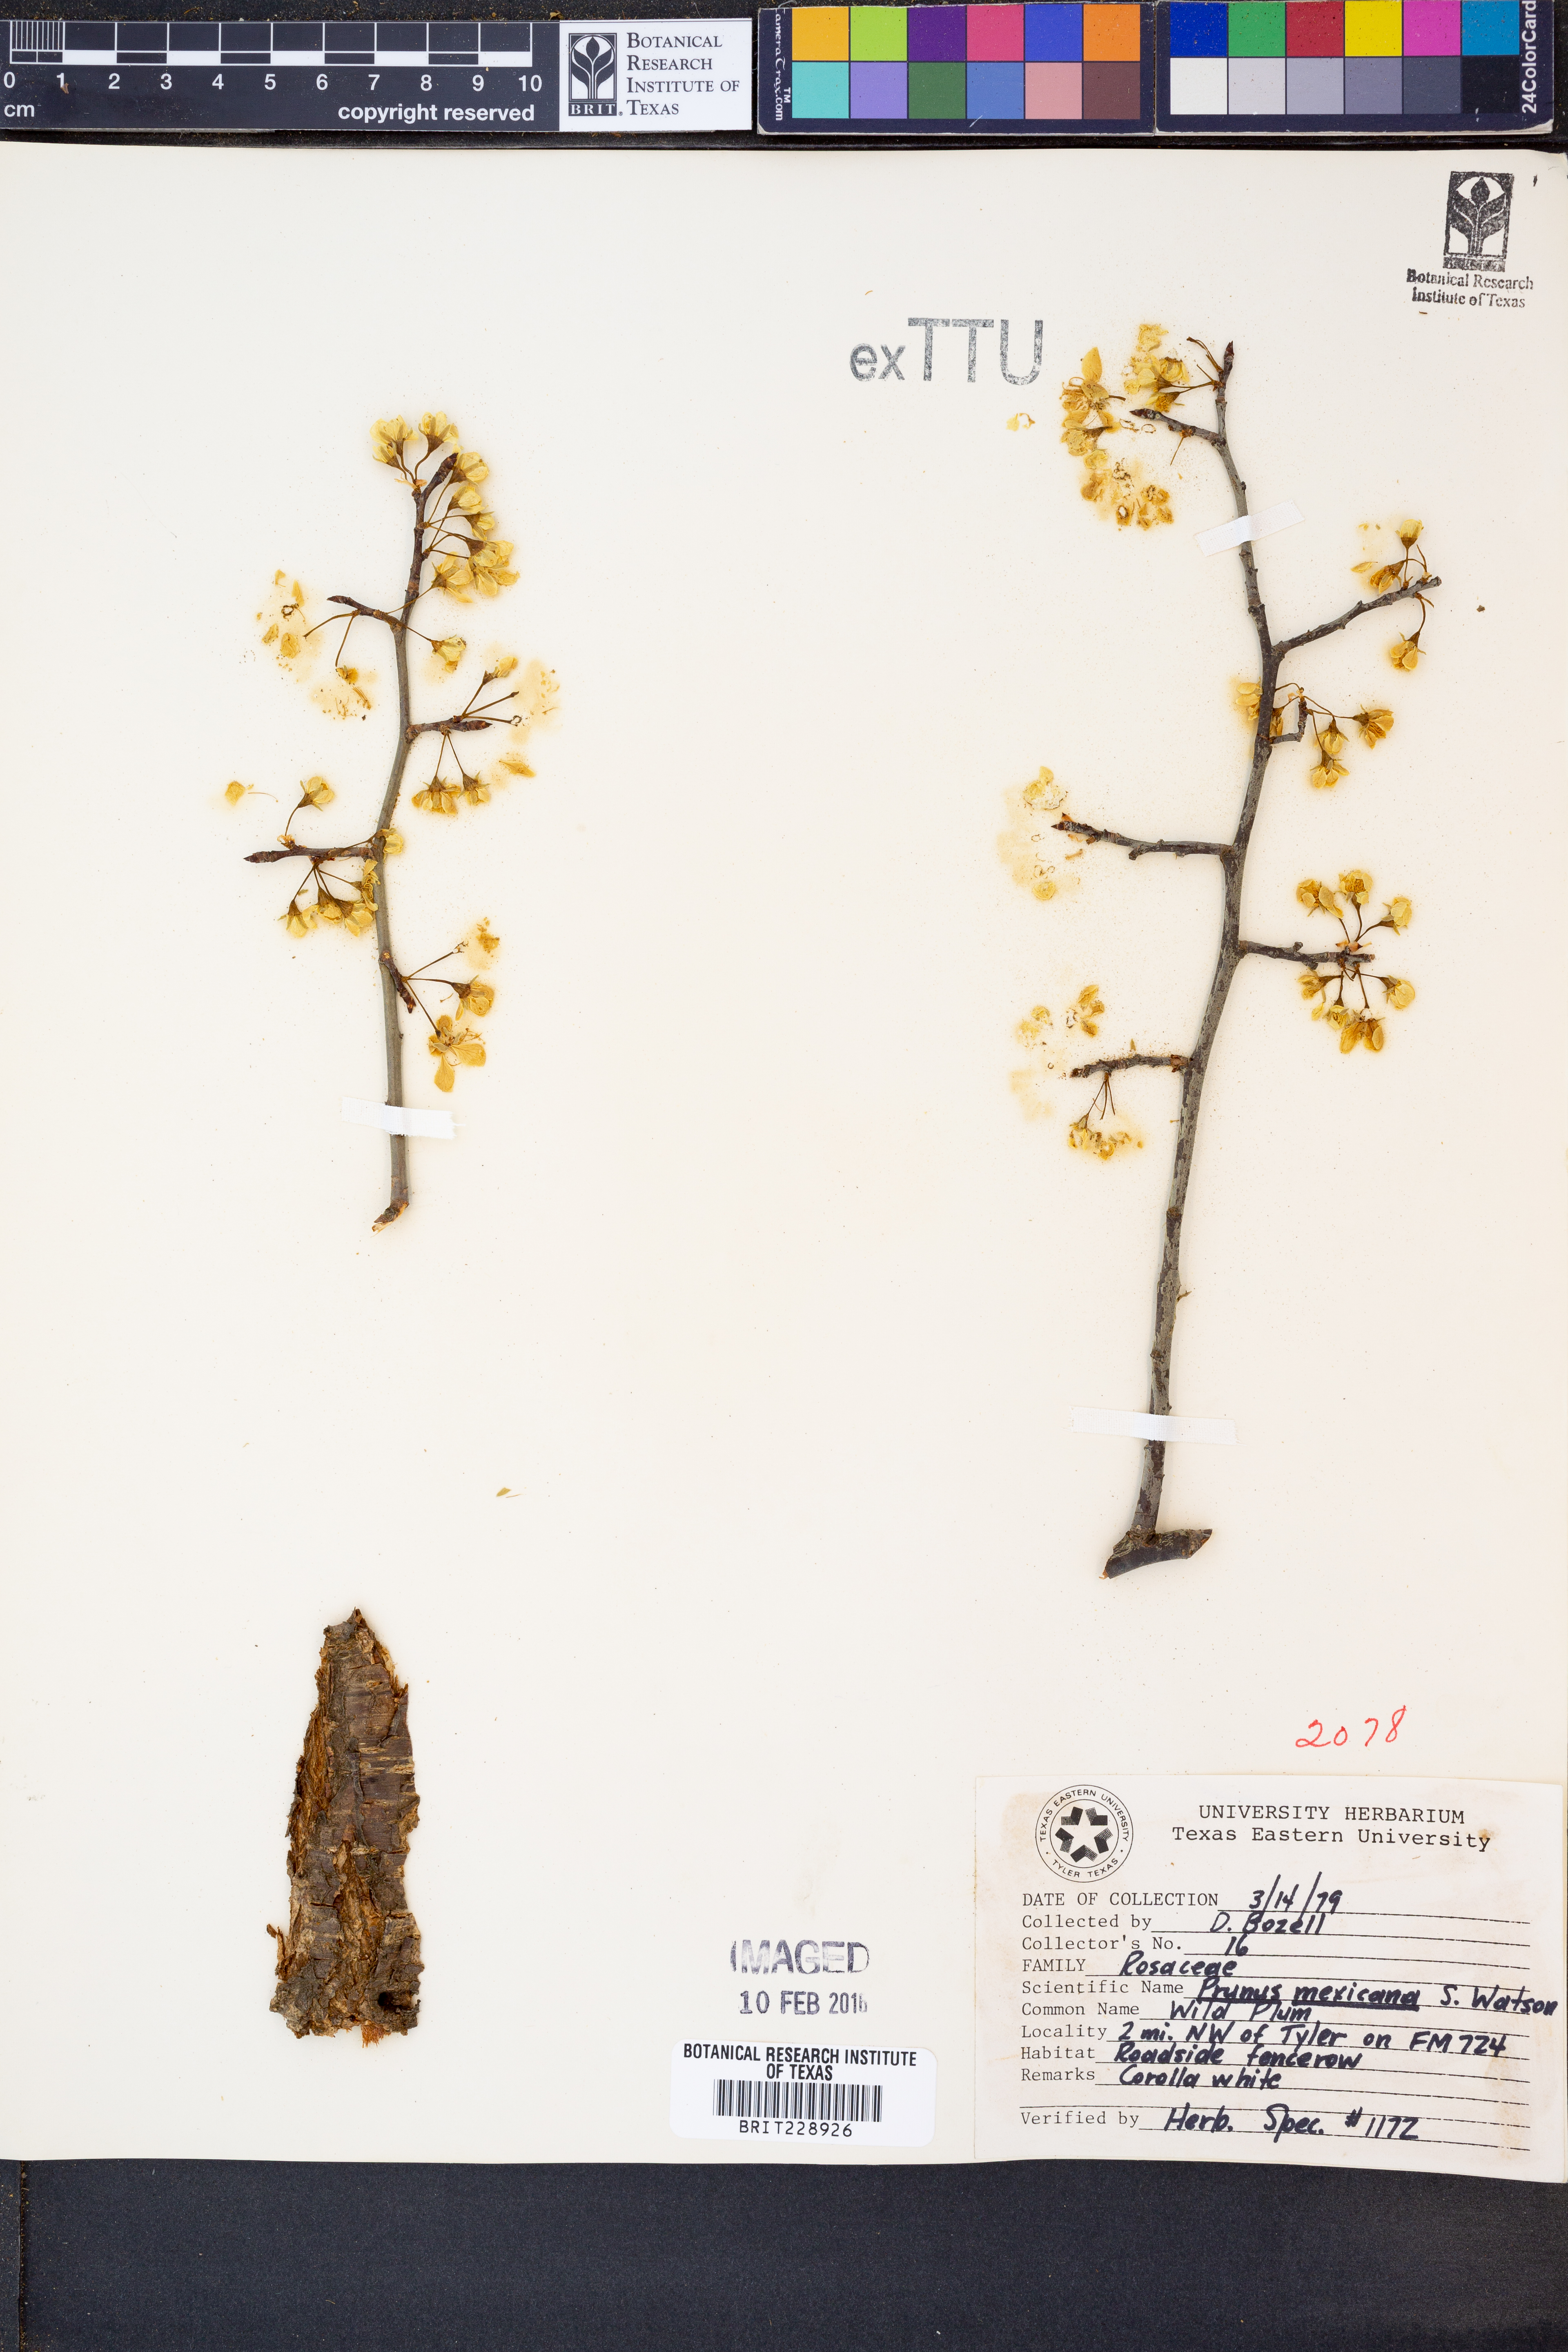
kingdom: Plantae
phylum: Tracheophyta
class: Magnoliopsida
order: Rosales
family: Rosaceae
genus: Prunus
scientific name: Prunus mexicana
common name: Mexican plum
